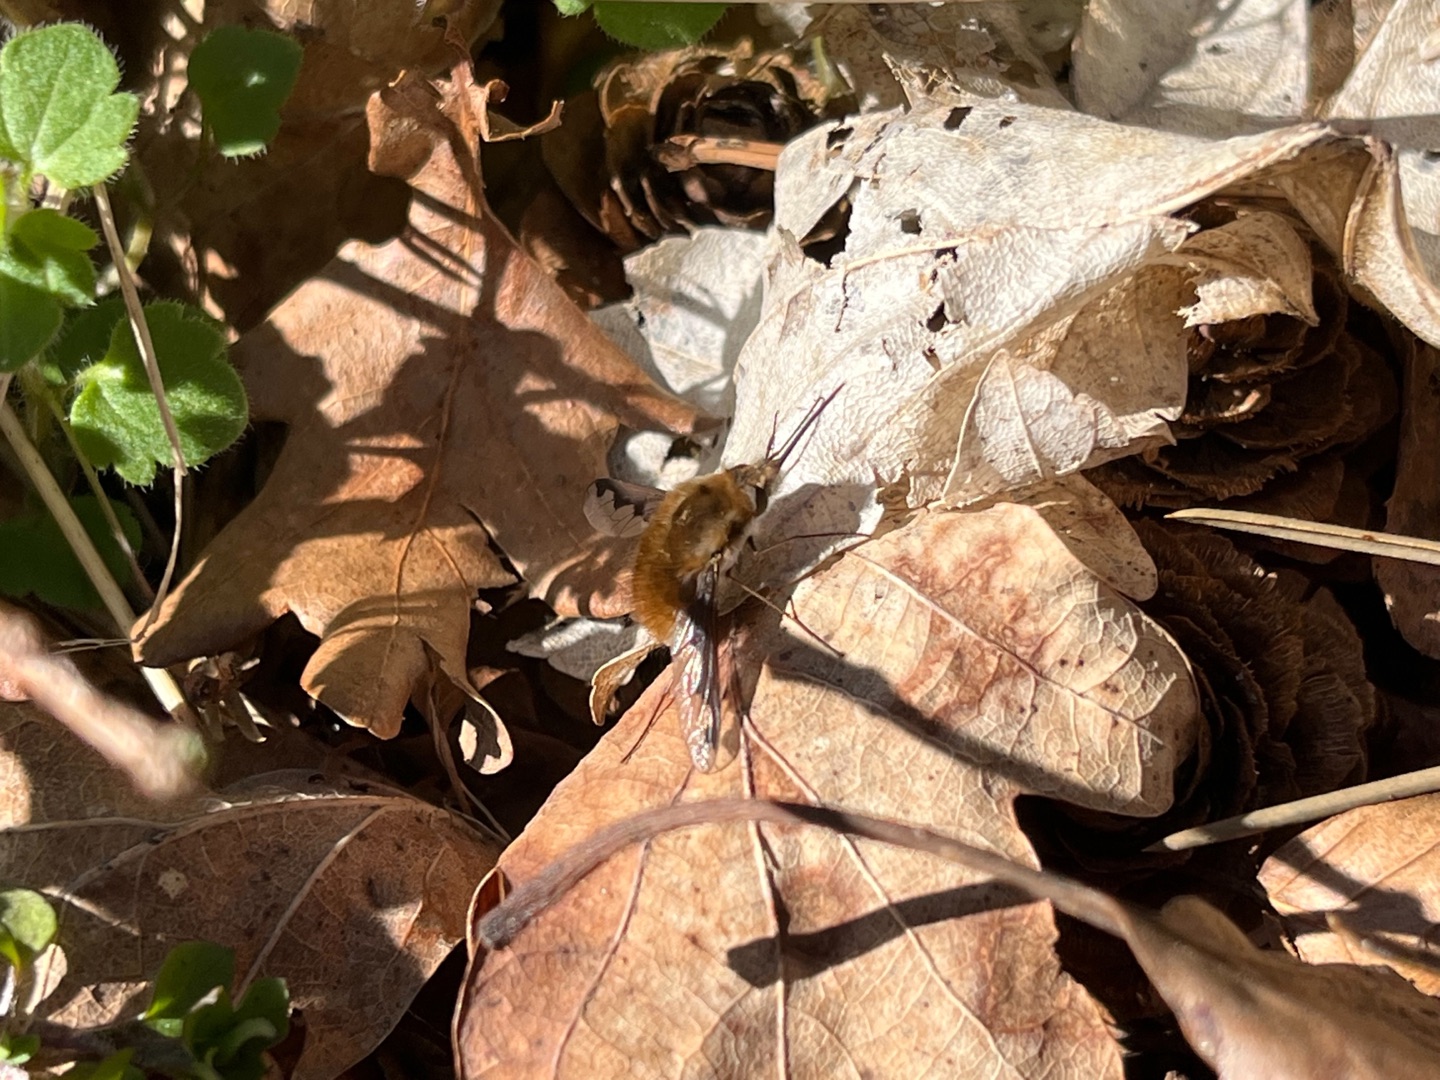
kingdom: Animalia
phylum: Arthropoda
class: Insecta
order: Diptera
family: Bombyliidae
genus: Bombylius
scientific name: Bombylius major
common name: Stor humleflue
